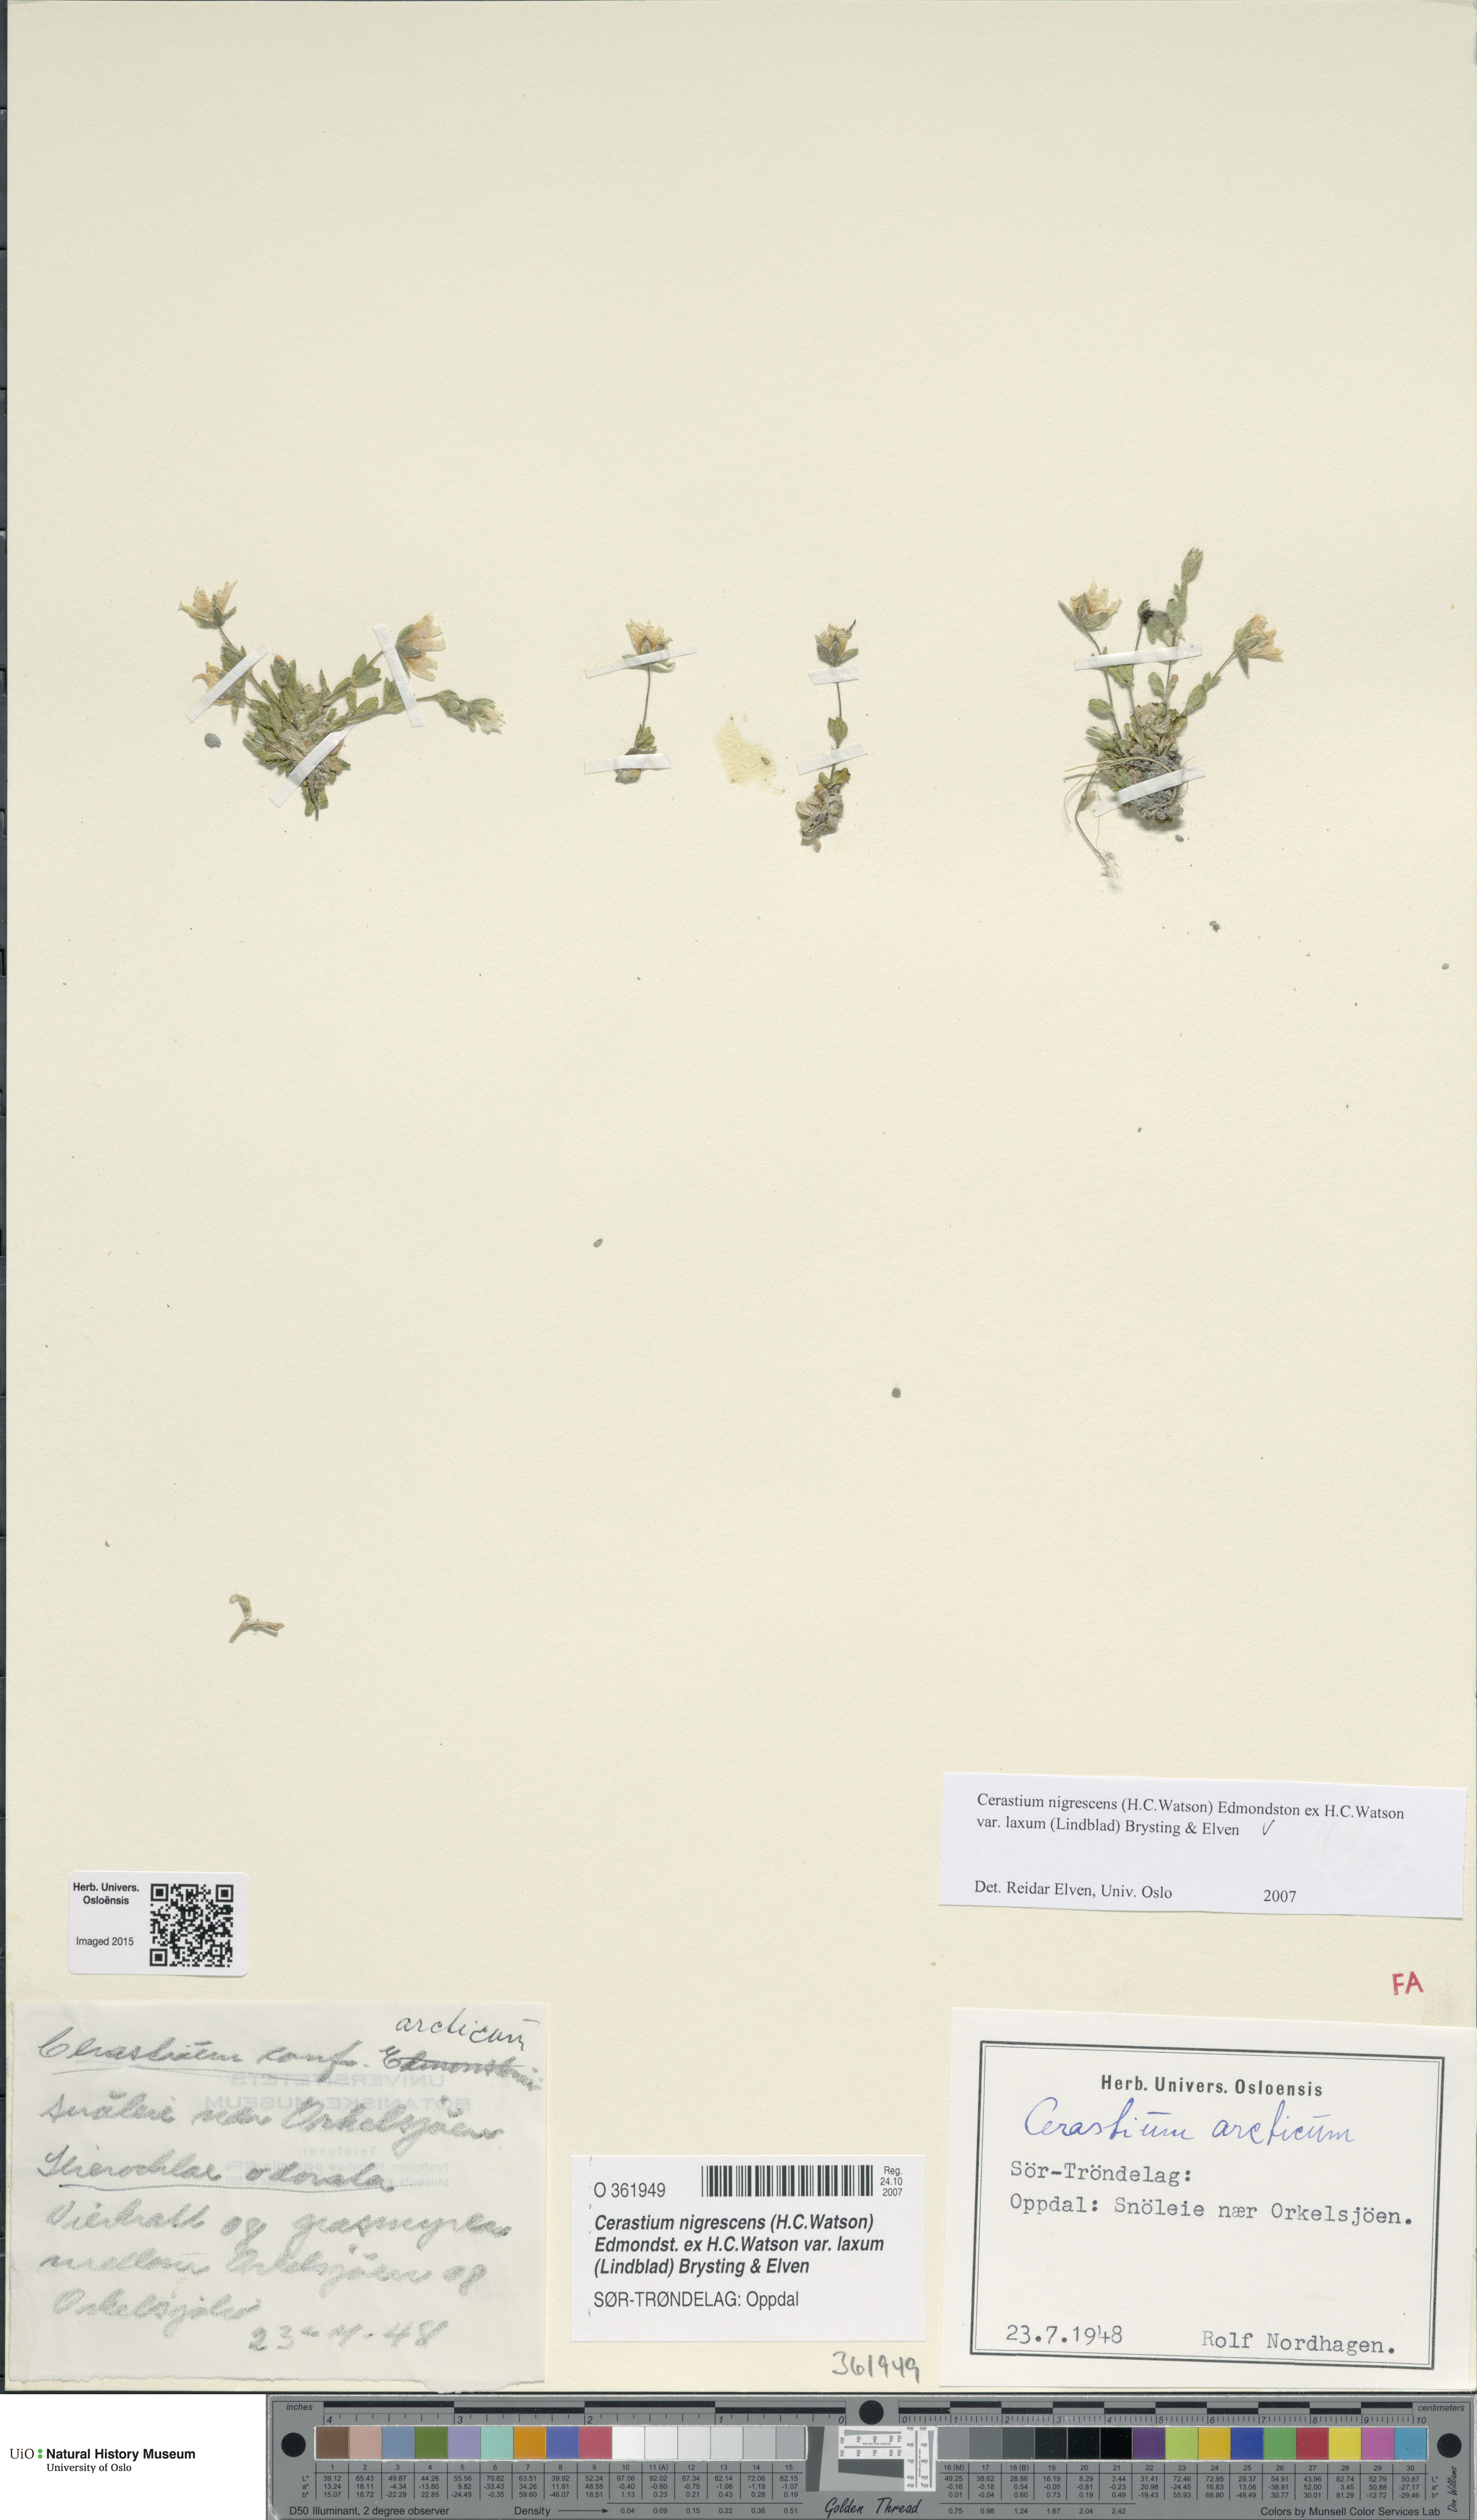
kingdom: Plantae
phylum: Tracheophyta
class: Magnoliopsida
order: Caryophyllales
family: Caryophyllaceae
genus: Cerastium
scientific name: Cerastium nigrescens
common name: Shetland mouse-ear
